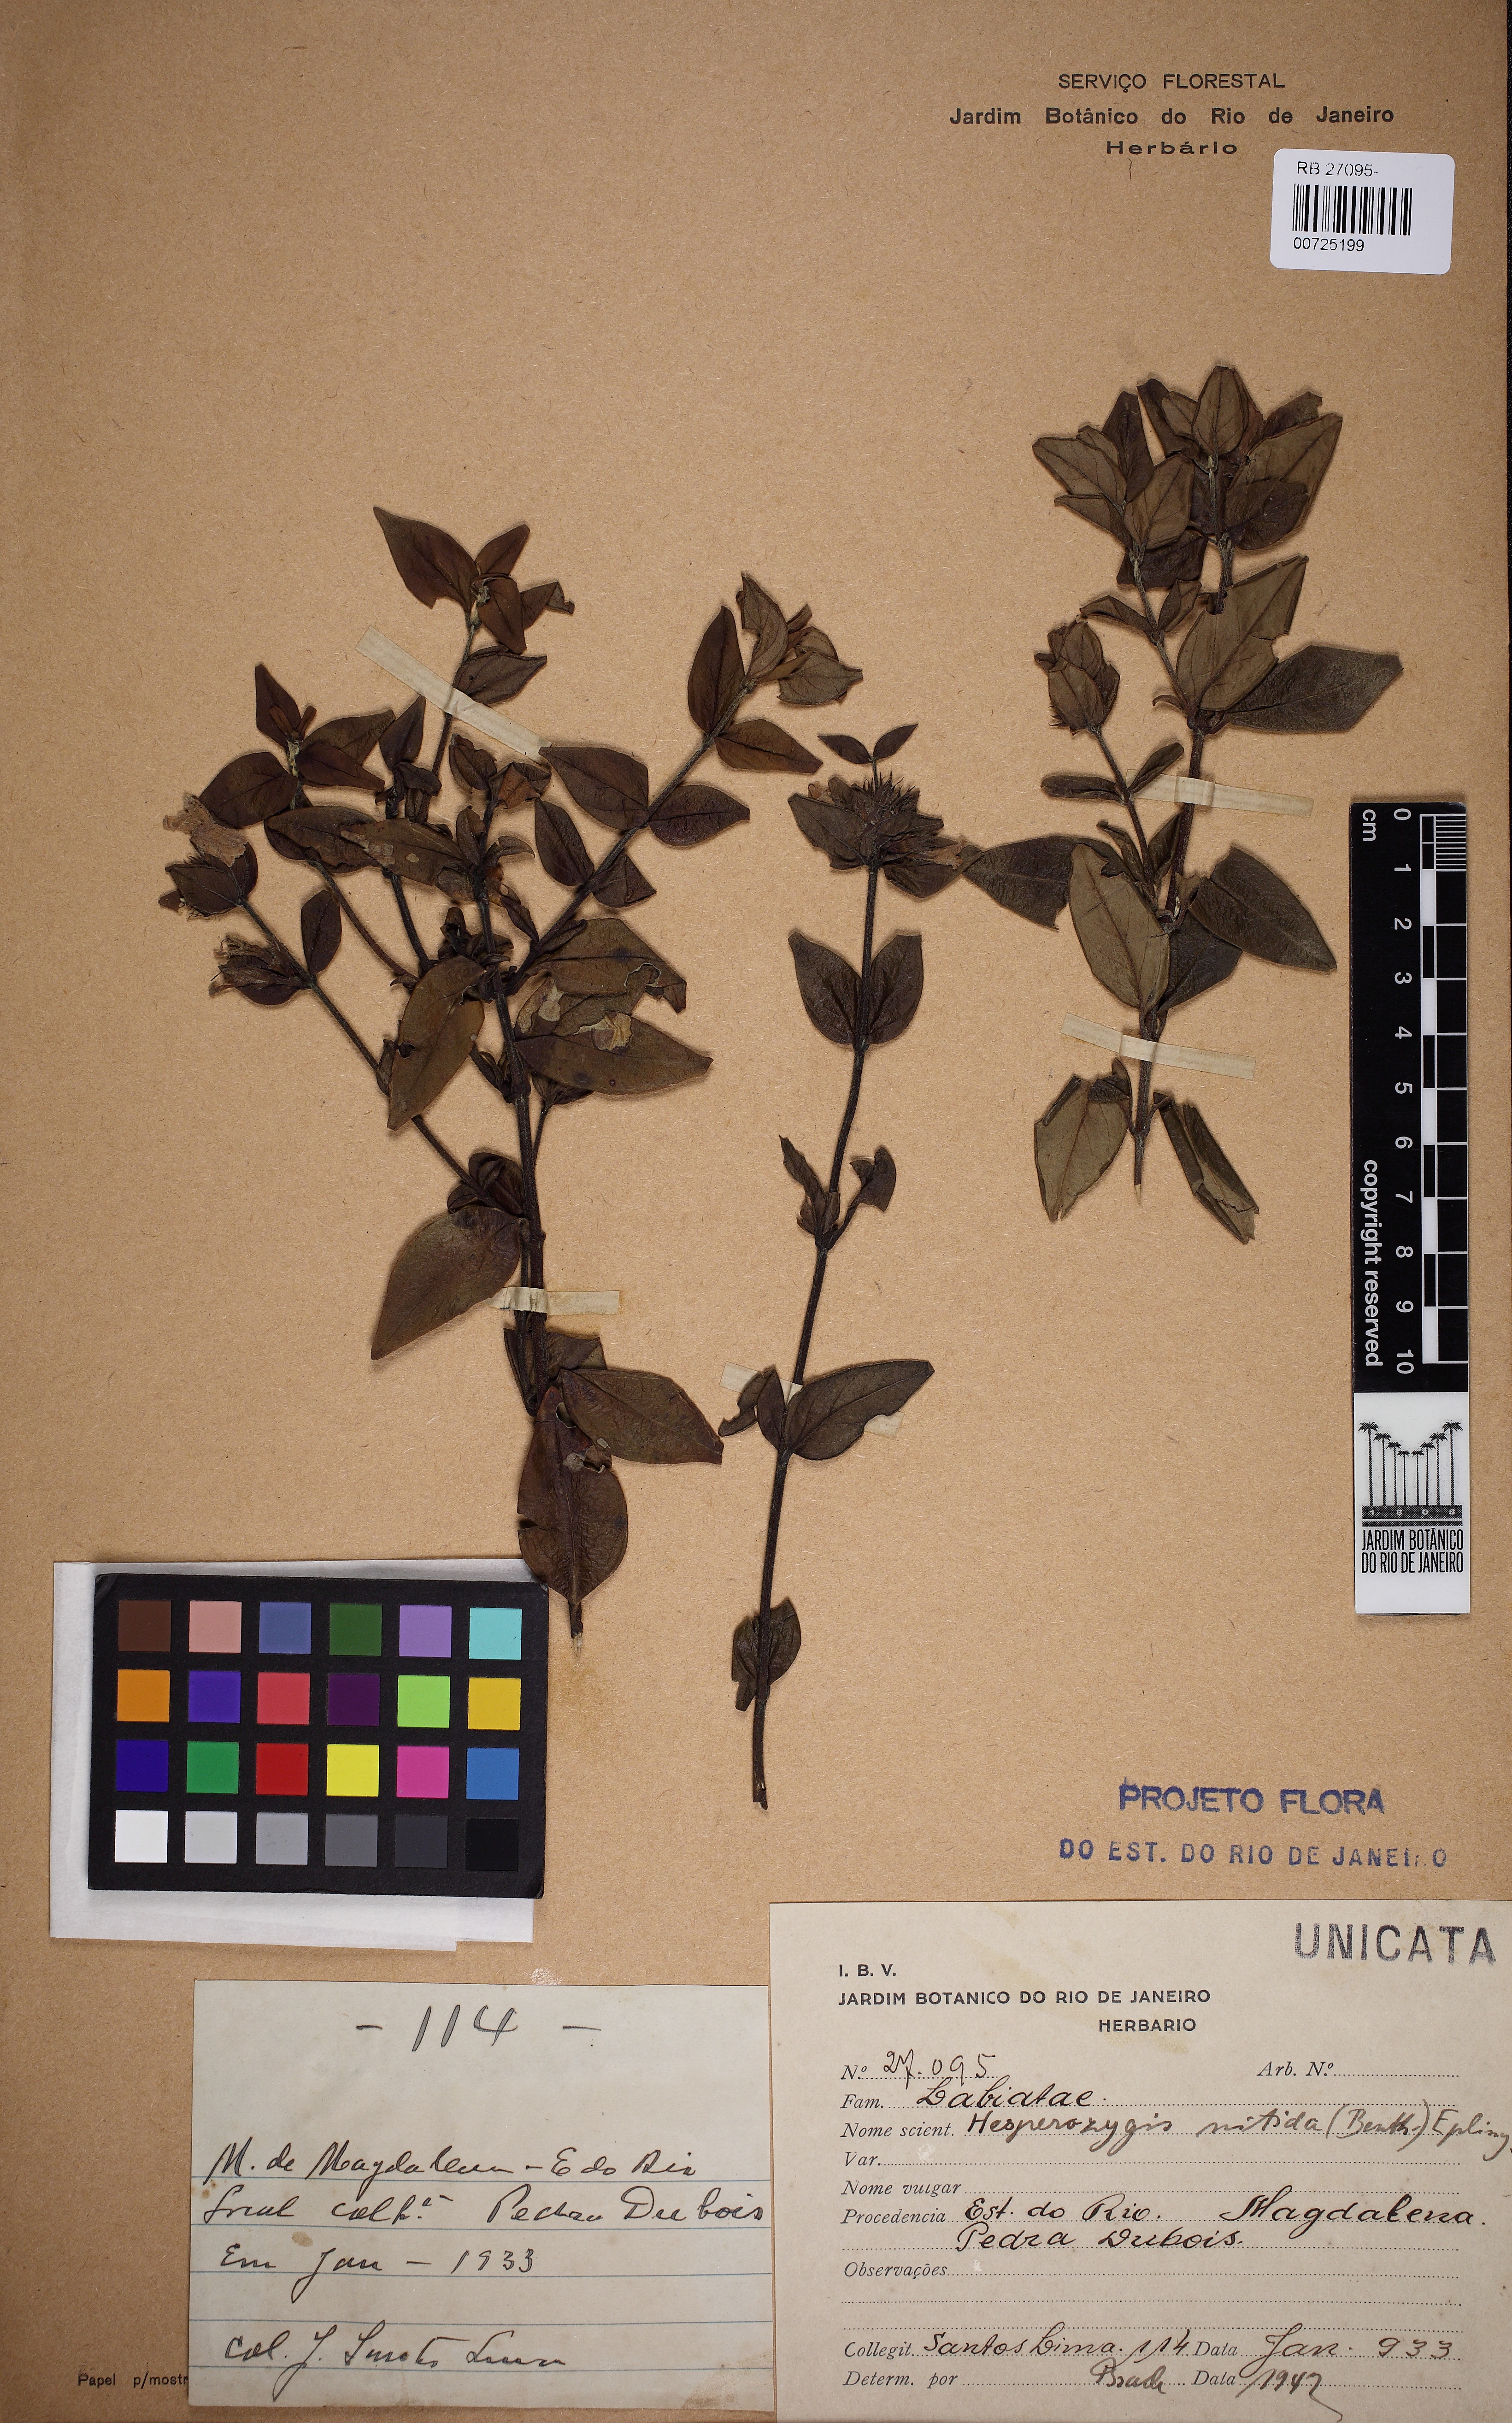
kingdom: Plantae
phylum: Tracheophyta
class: Magnoliopsida
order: Lamiales
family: Lamiaceae
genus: Hesperozygis
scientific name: Hesperozygis nitida
